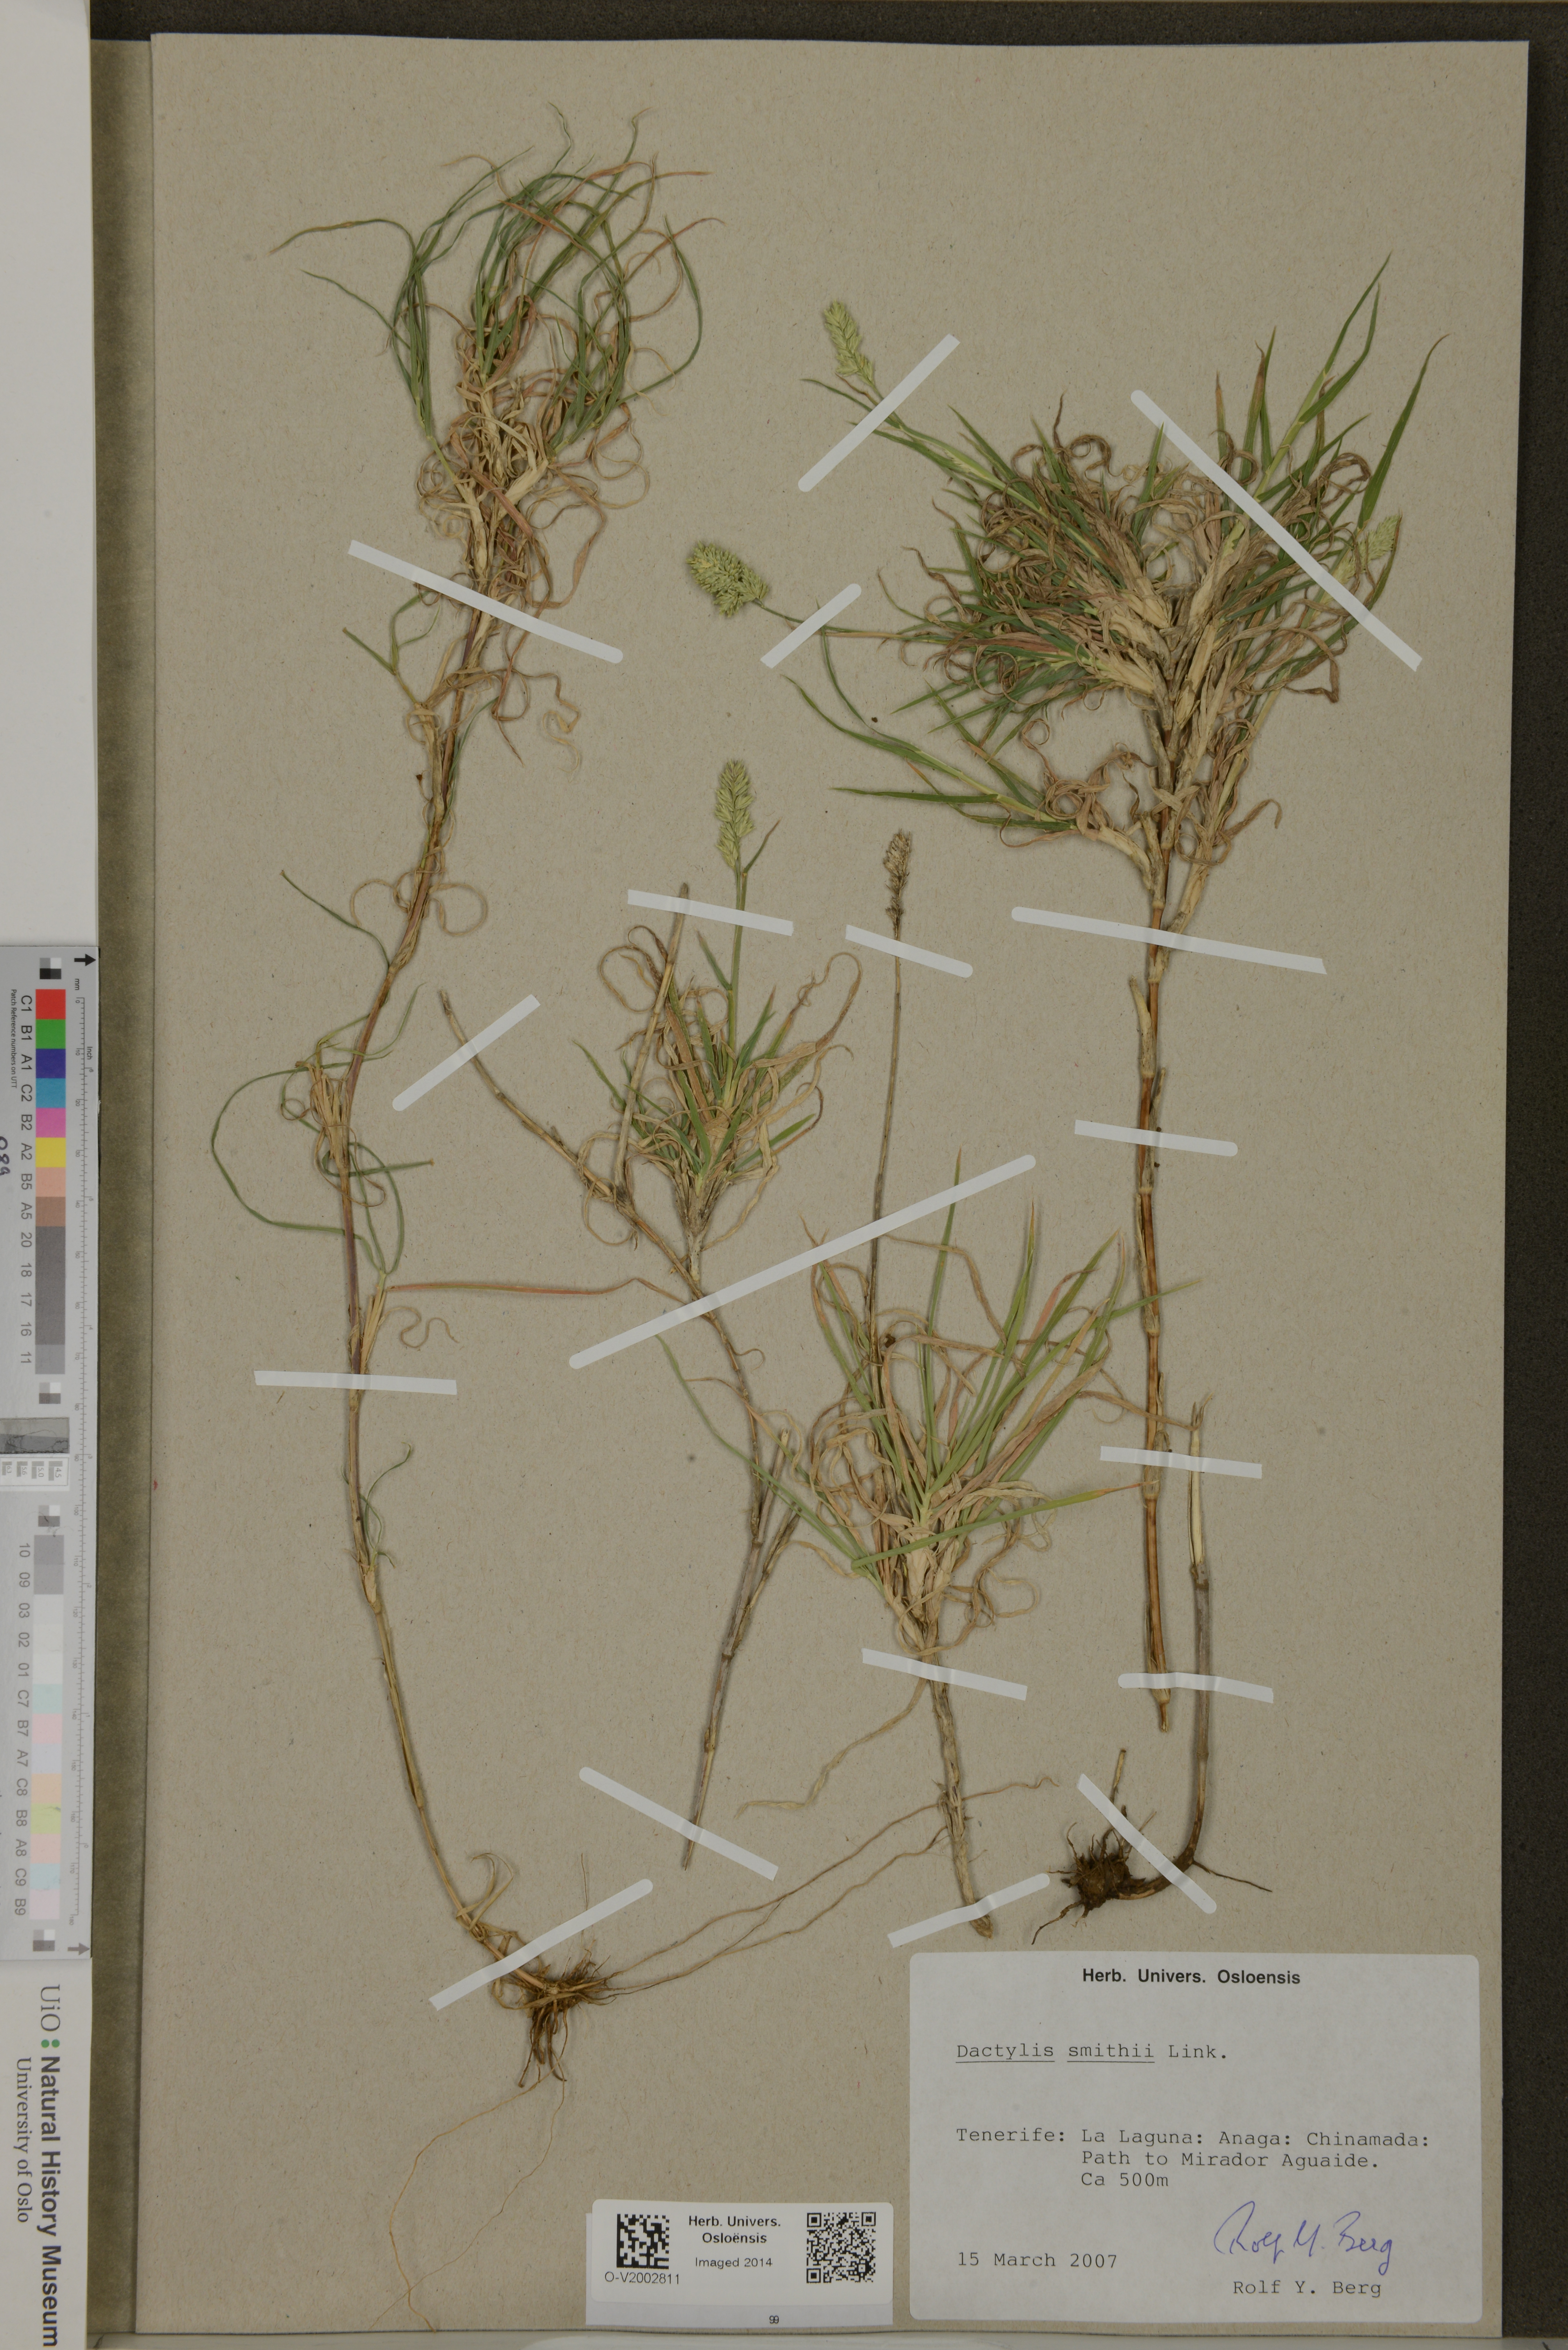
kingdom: Plantae
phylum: Tracheophyta
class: Liliopsida
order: Poales
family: Poaceae
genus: Dactylis
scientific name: Dactylis smithii
